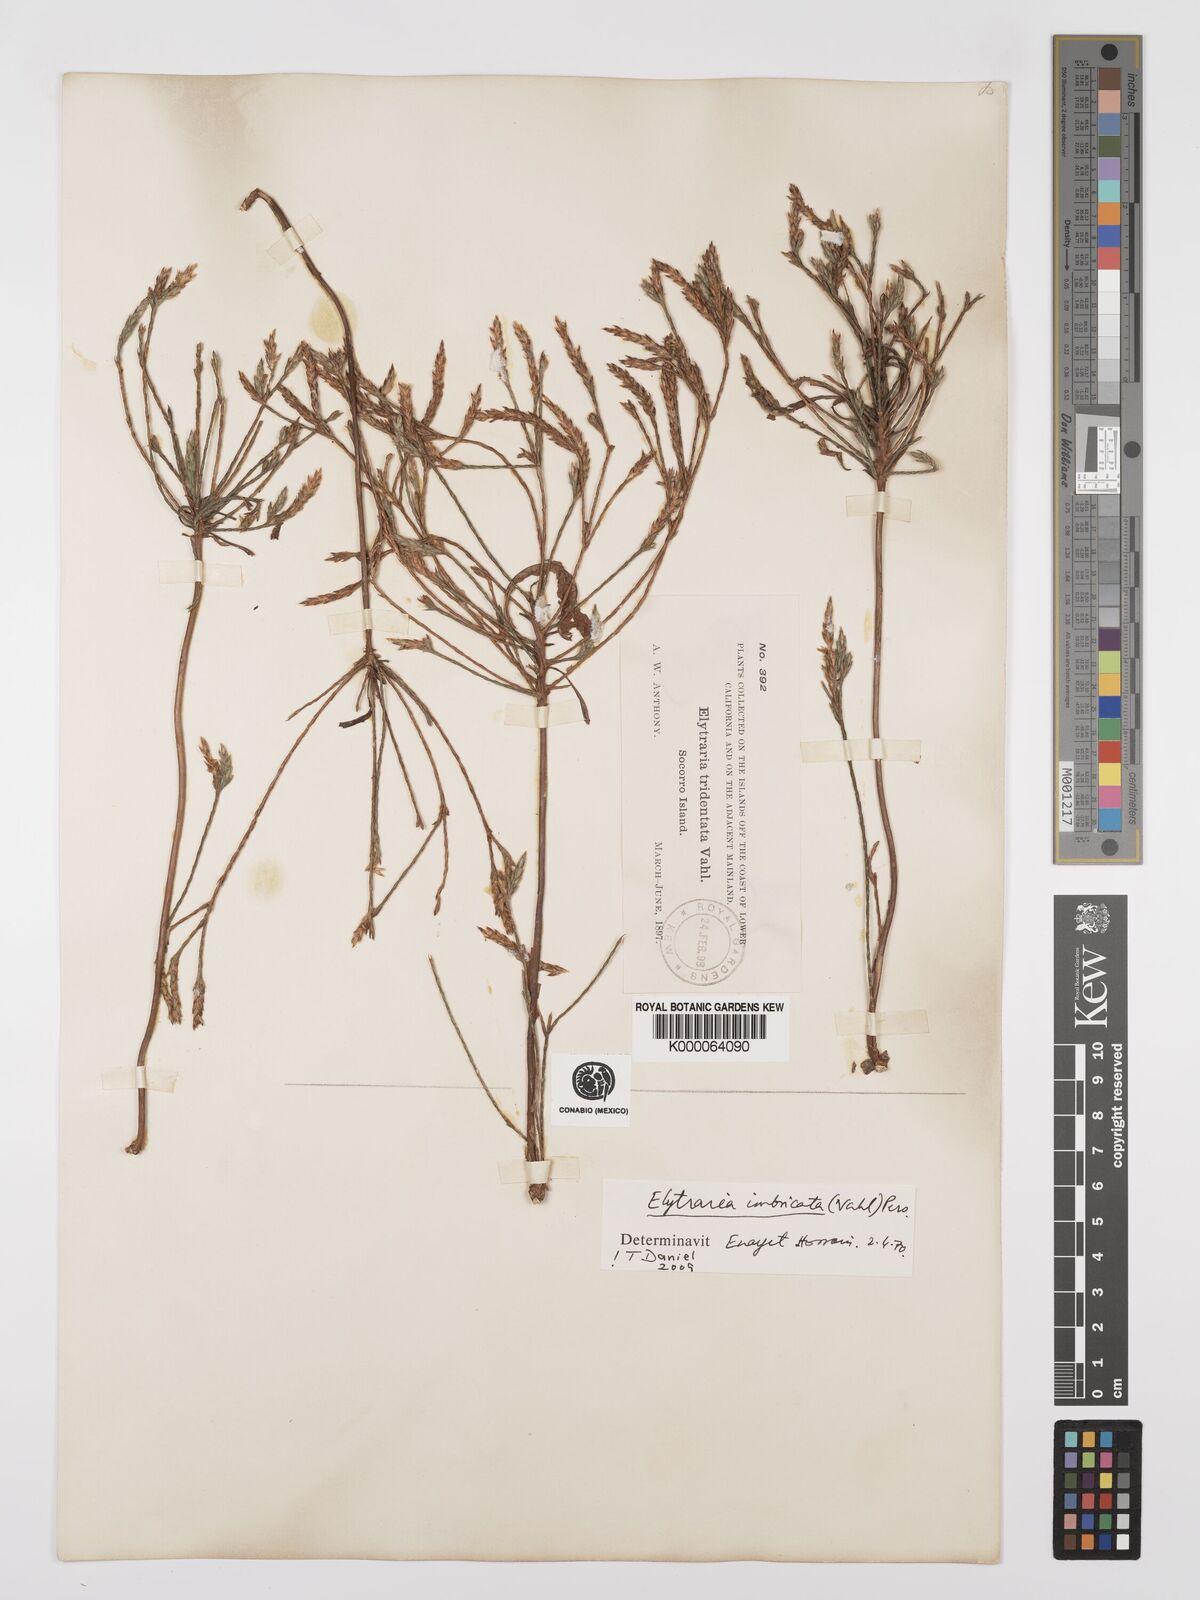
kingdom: Plantae
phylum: Tracheophyta
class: Magnoliopsida
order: Lamiales
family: Acanthaceae
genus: Elytraria
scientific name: Elytraria imbricata
